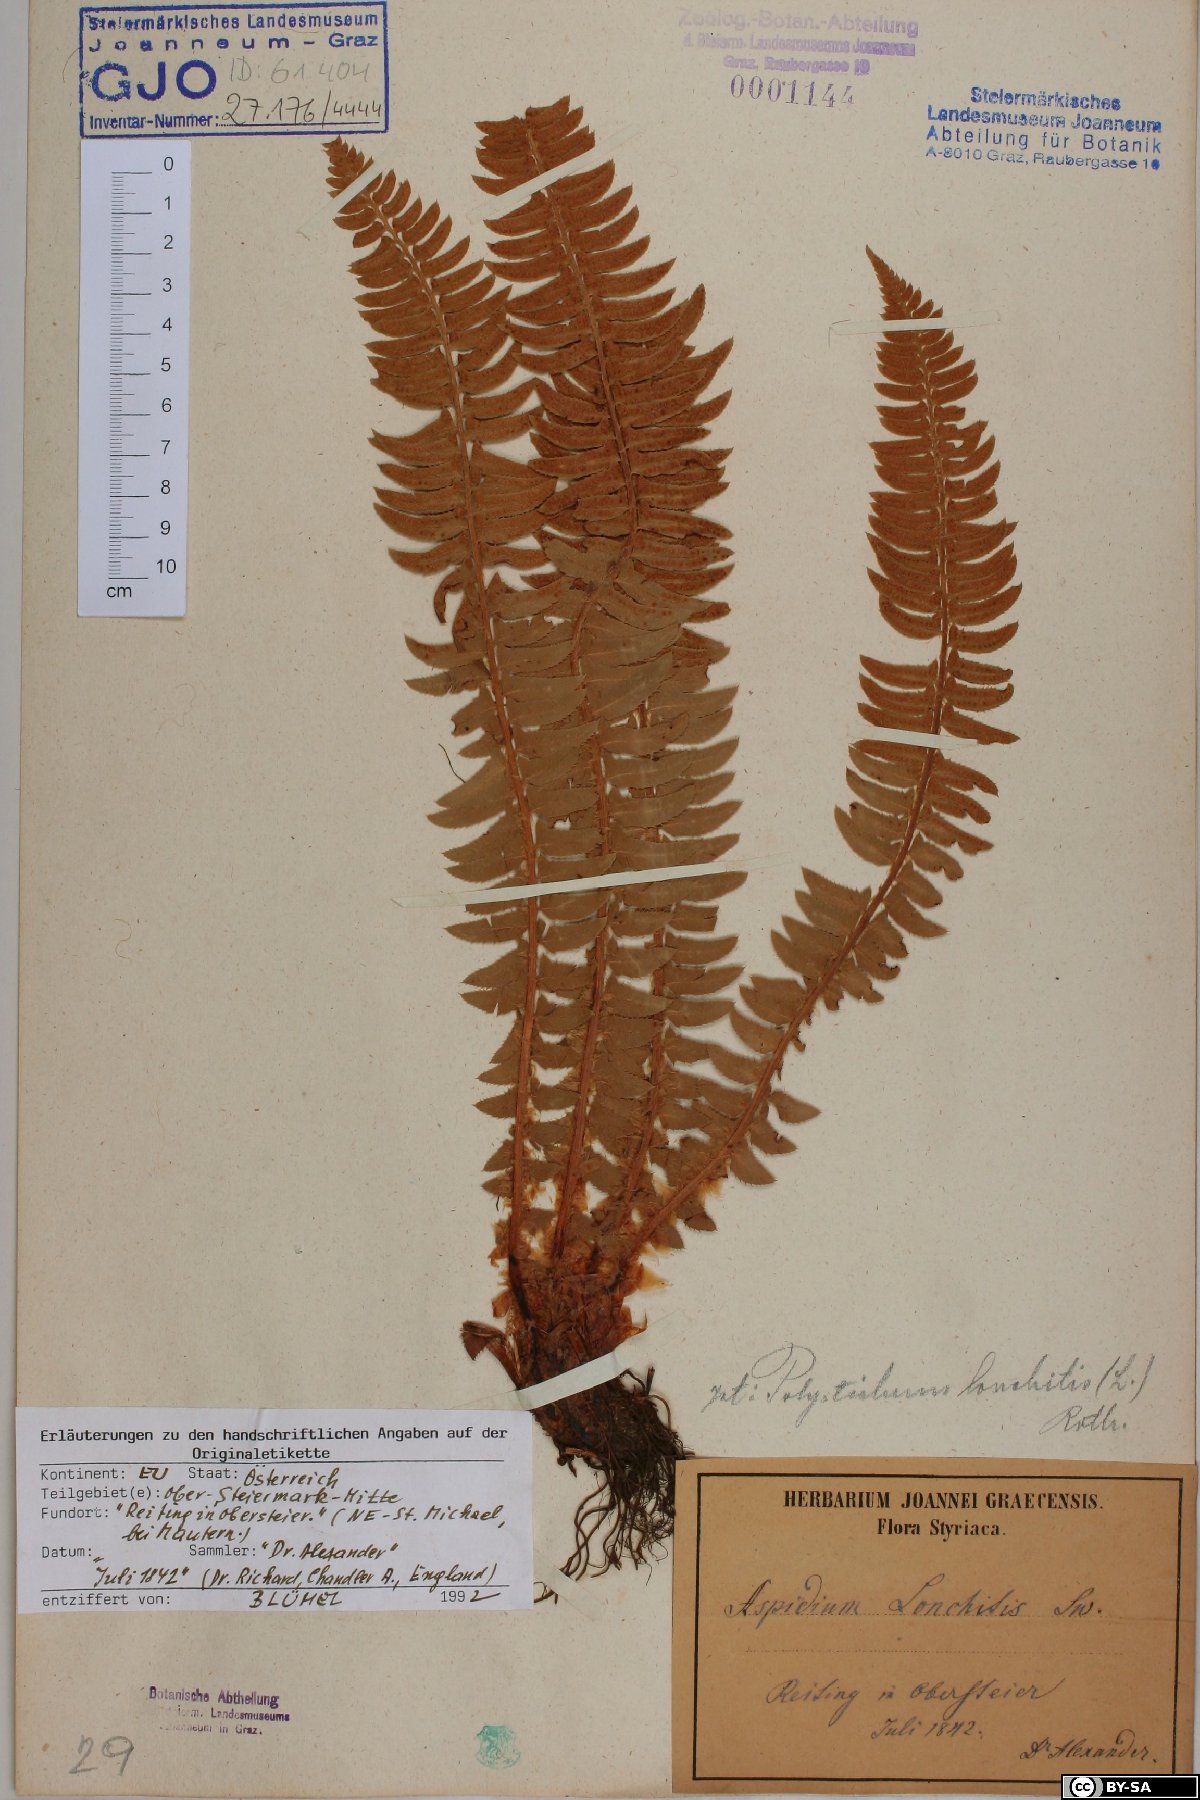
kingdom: Plantae
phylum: Tracheophyta
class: Polypodiopsida
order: Polypodiales
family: Dryopteridaceae
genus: Polystichum
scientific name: Polystichum lonchitis
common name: Holly fern
